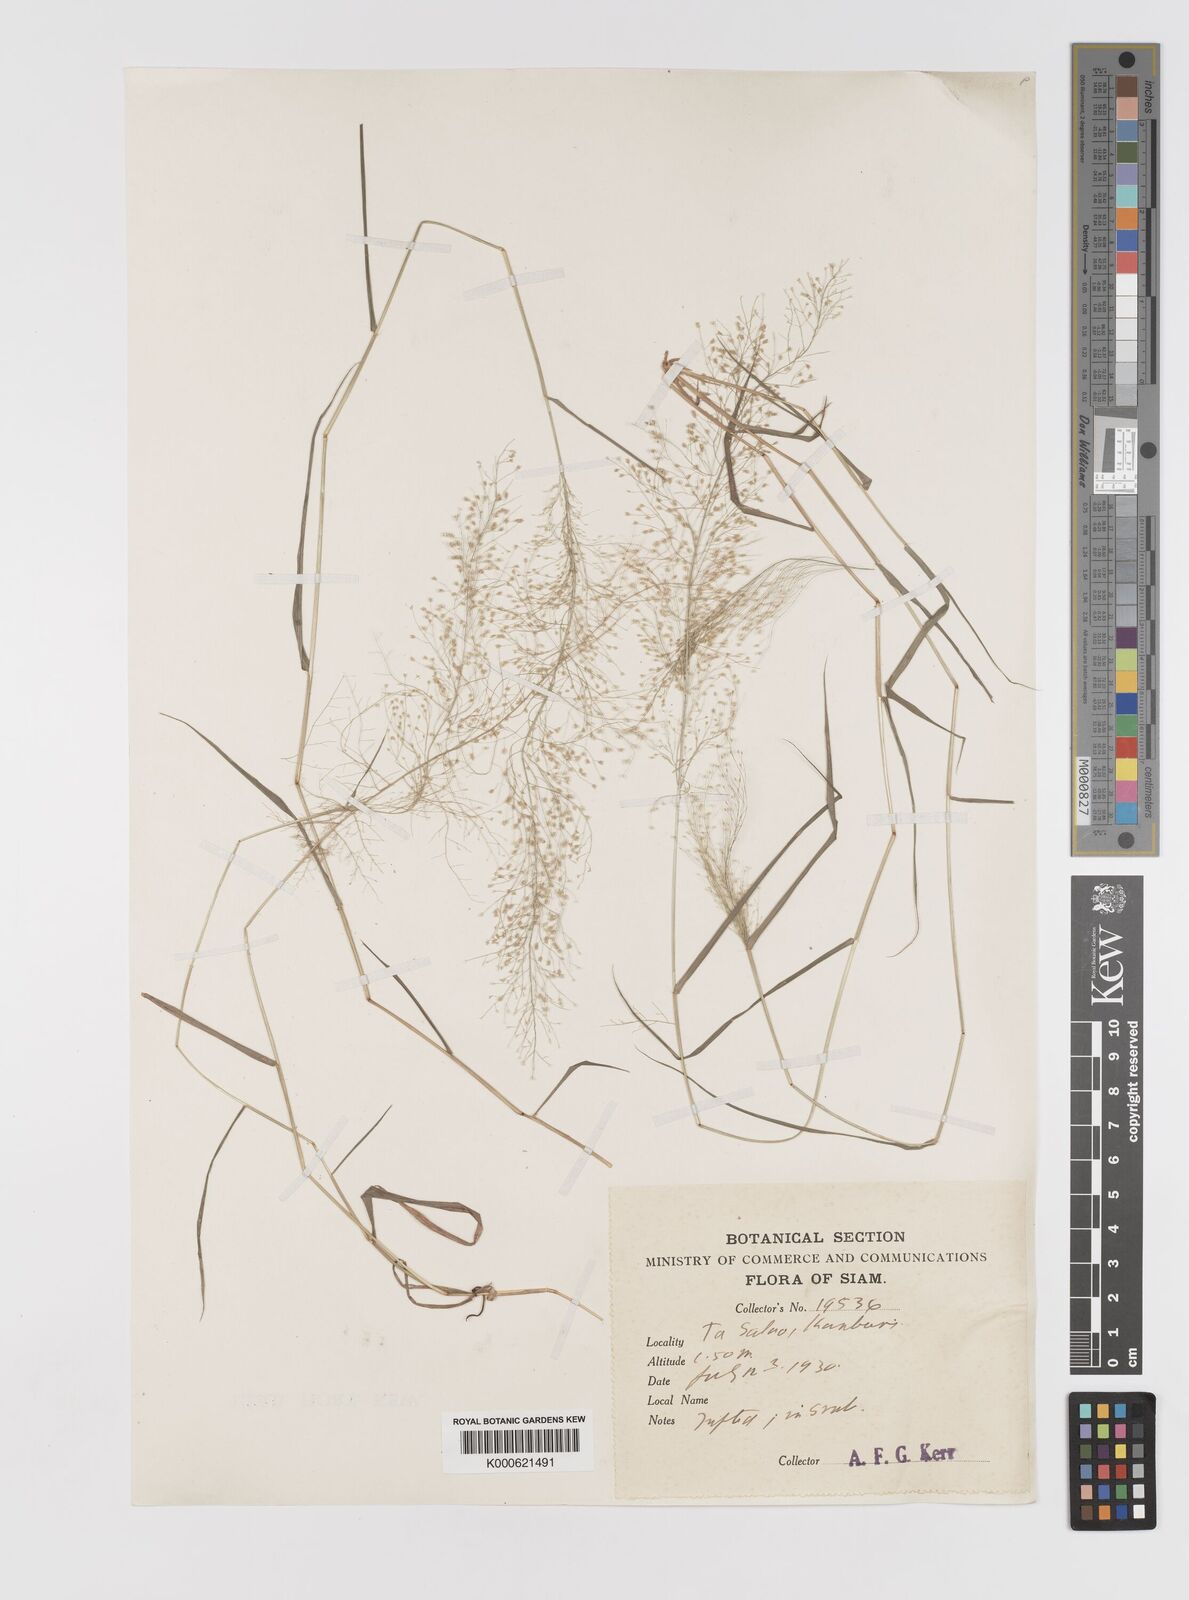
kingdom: Plantae
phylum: Tracheophyta
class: Liliopsida
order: Poales
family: Poaceae
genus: Eragrostis
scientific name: Eragrostis tenella
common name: Japanese lovegrass
